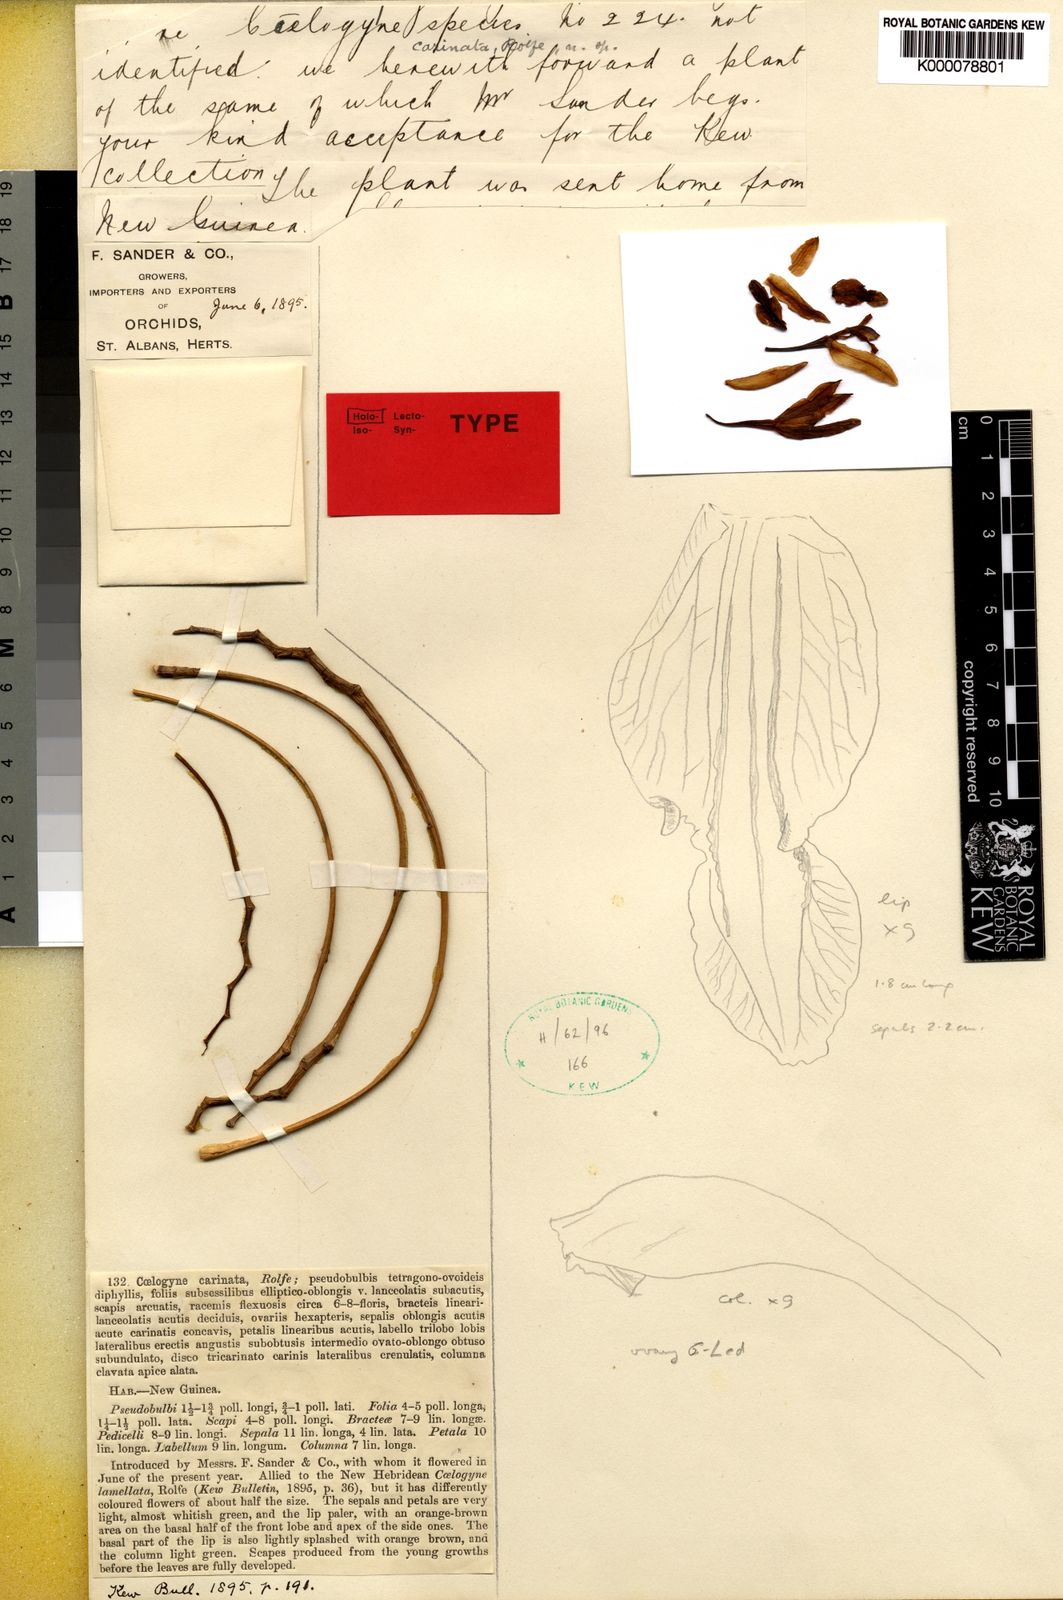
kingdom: Plantae
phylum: Tracheophyta
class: Liliopsida
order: Asparagales
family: Orchidaceae
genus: Coelogyne
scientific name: Coelogyne carinata
